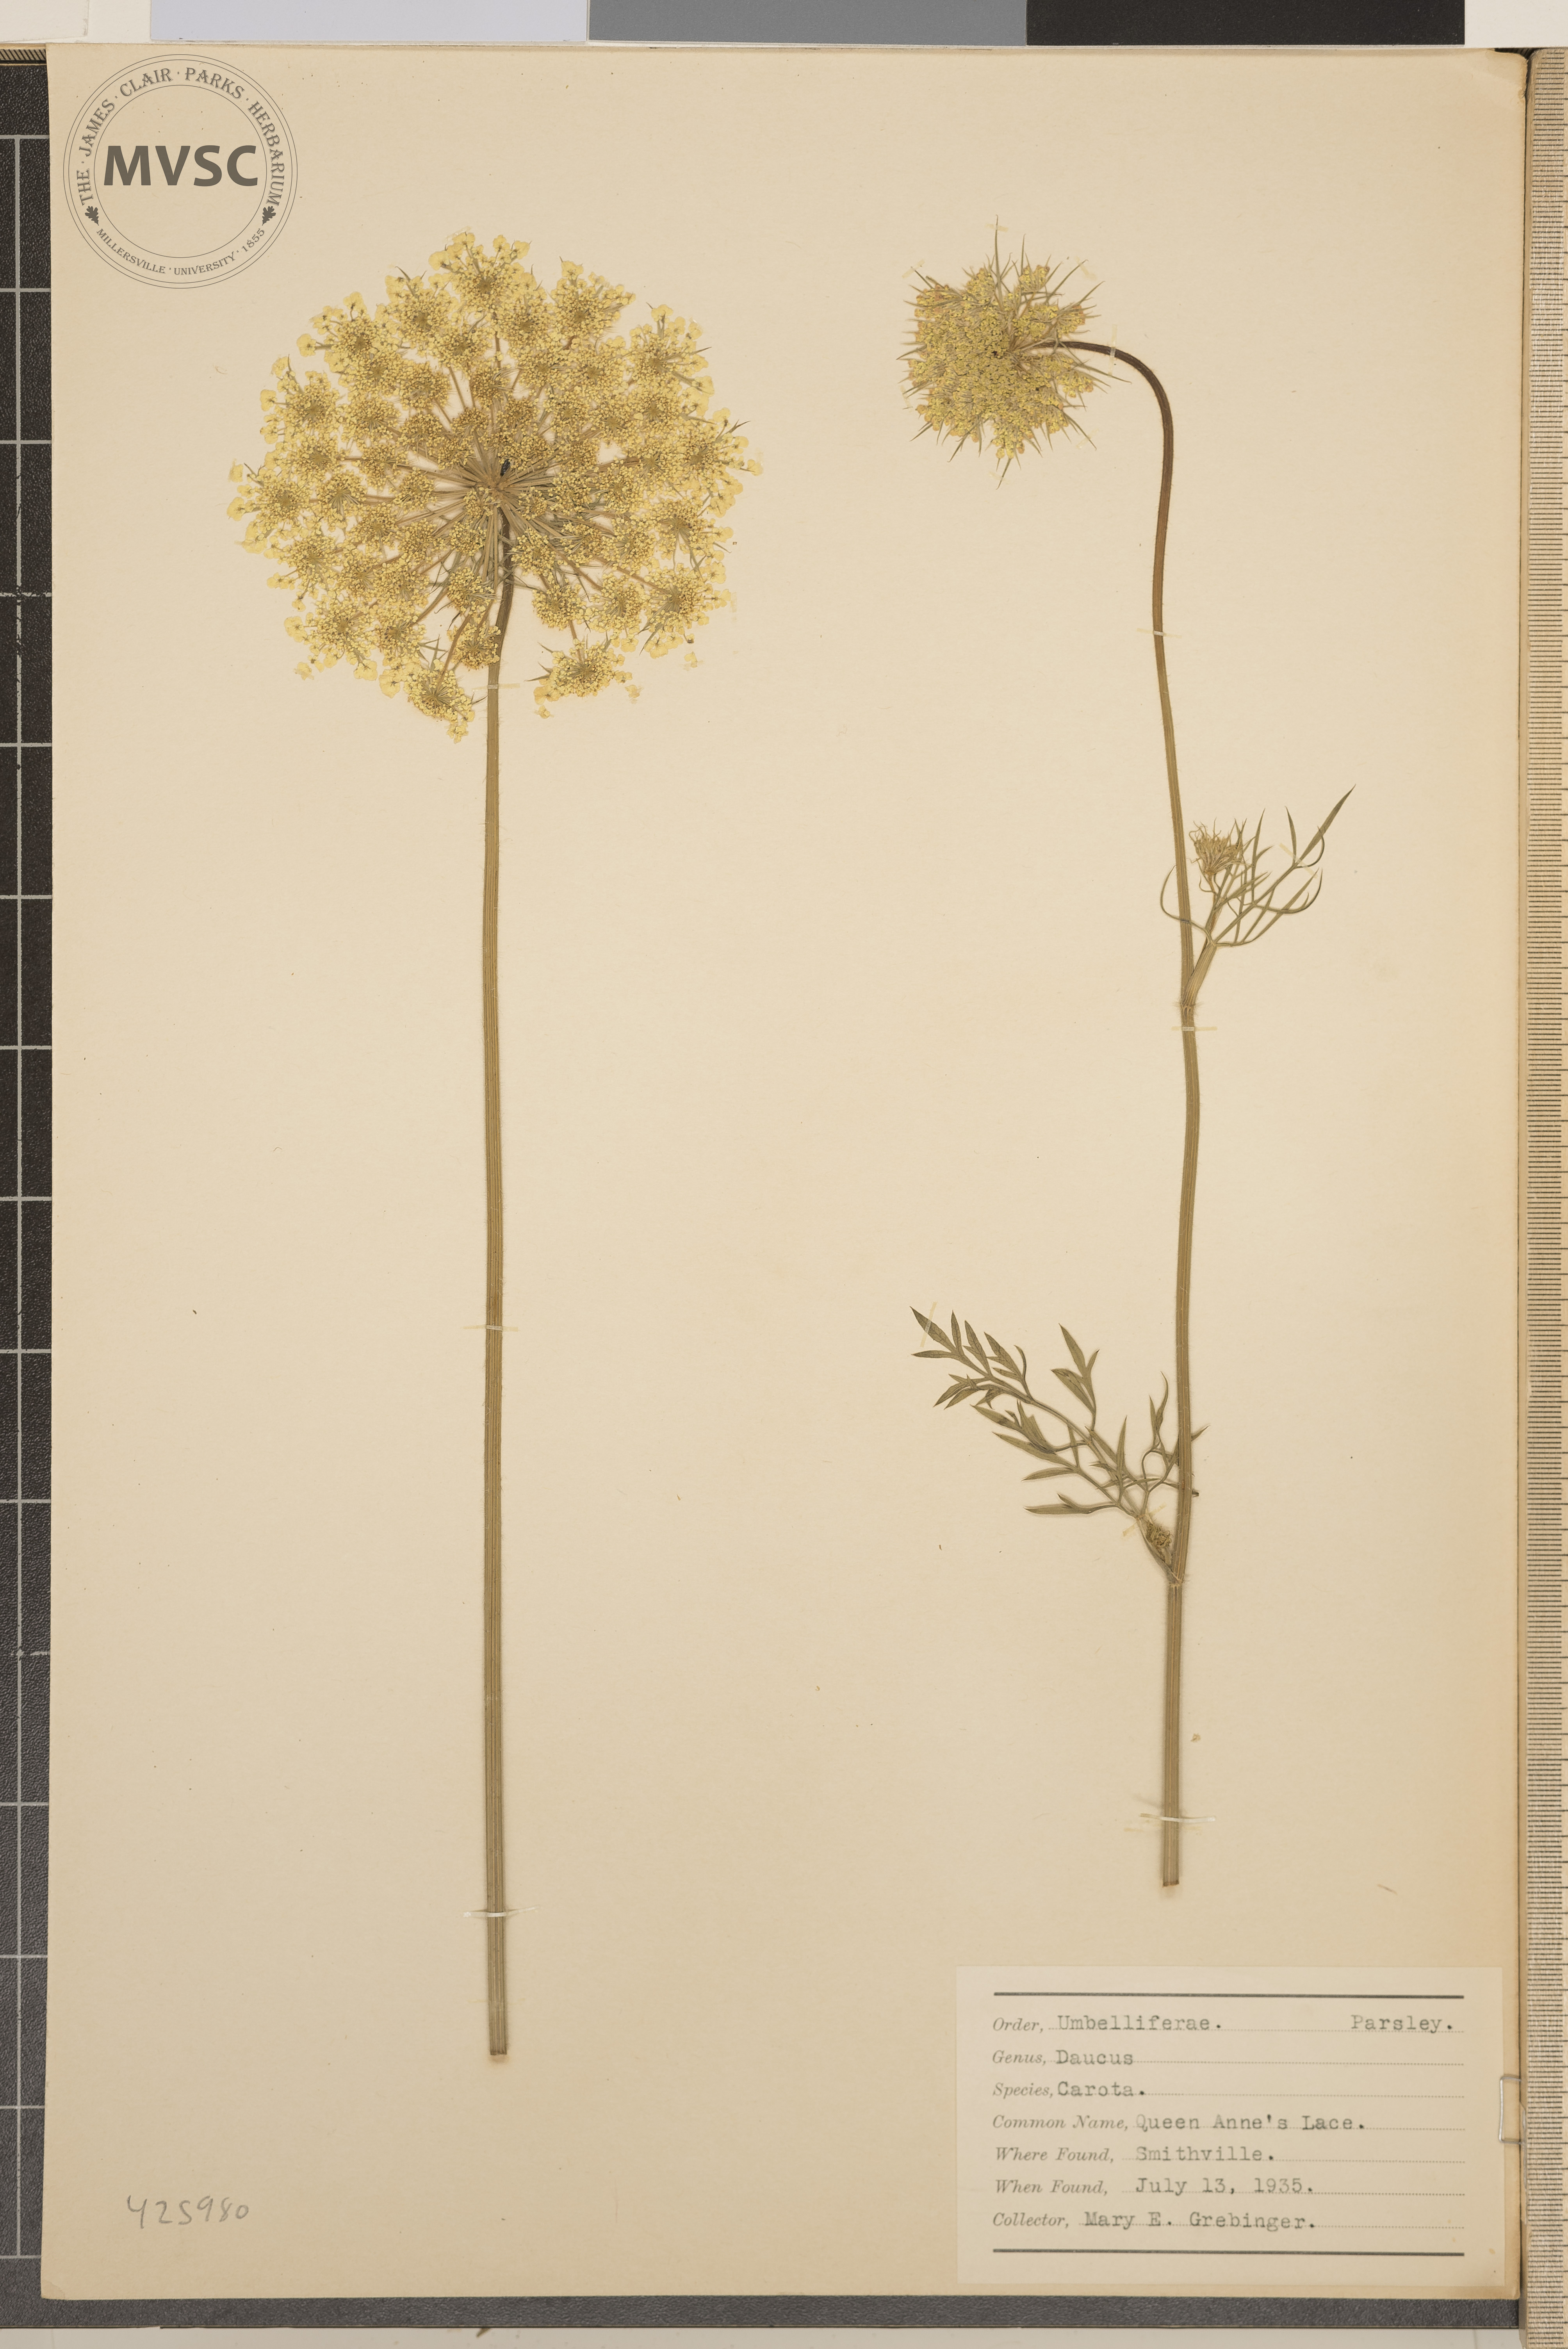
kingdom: Plantae
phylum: Tracheophyta
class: Magnoliopsida
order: Apiales
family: Apiaceae
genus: Daucus
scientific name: Daucus carota
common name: Queen Anne's Lace
